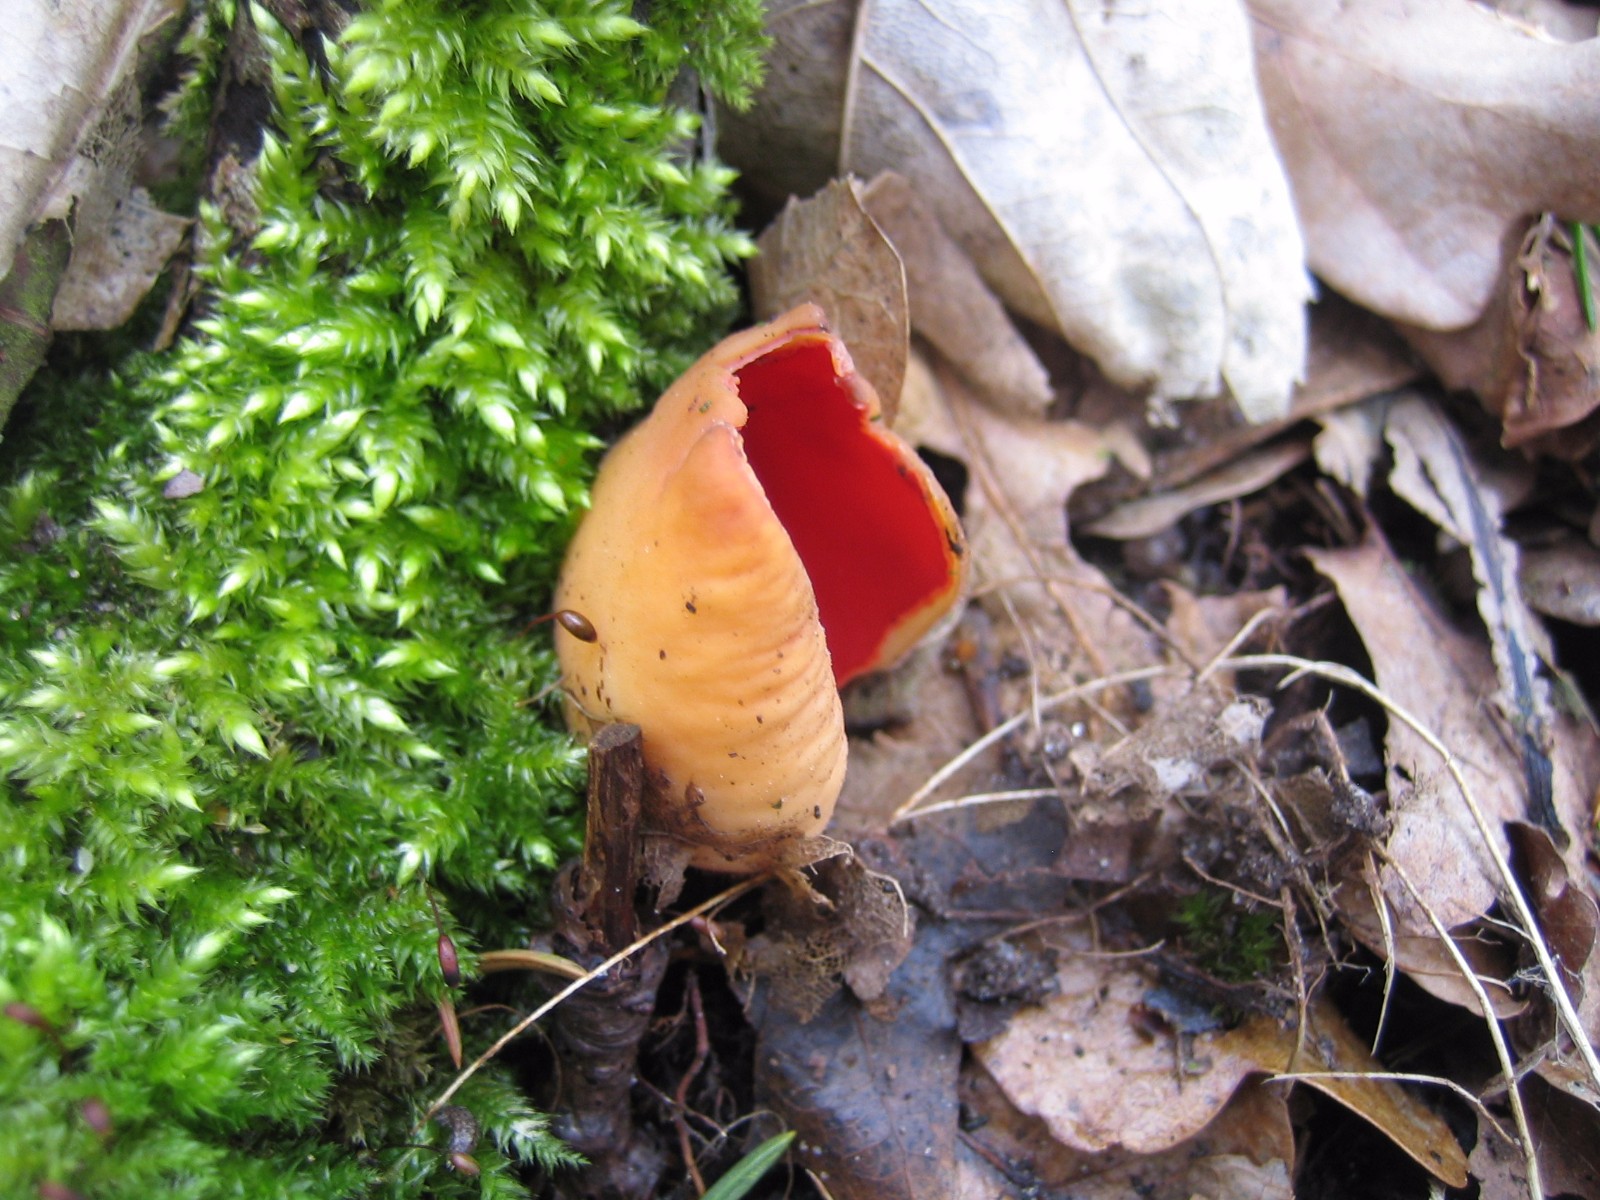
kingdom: Fungi
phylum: Ascomycota
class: Pezizomycetes
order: Pezizales
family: Sarcoscyphaceae
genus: Sarcoscypha
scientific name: Sarcoscypha austriaca
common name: krølhåret pragtbæger
